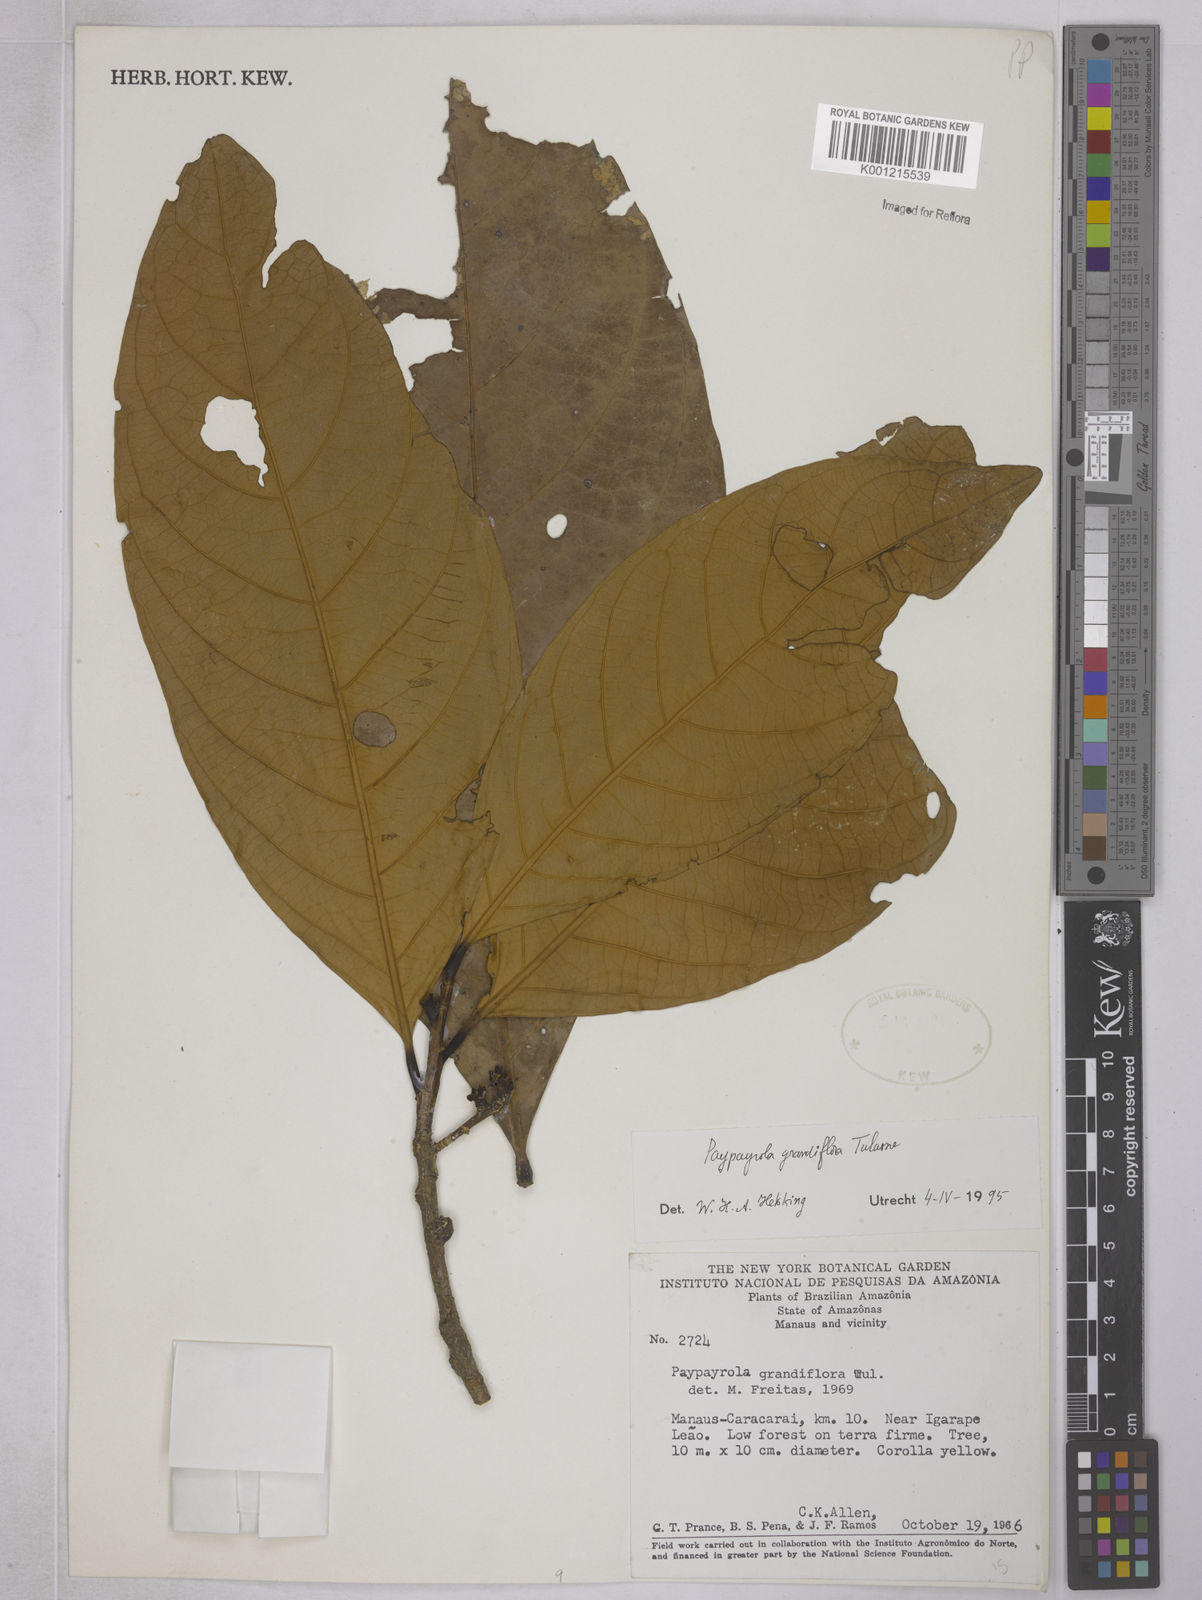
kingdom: Plantae
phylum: Tracheophyta
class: Magnoliopsida
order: Malpighiales
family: Violaceae
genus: Paypayrola
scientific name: Paypayrola grandiflora
